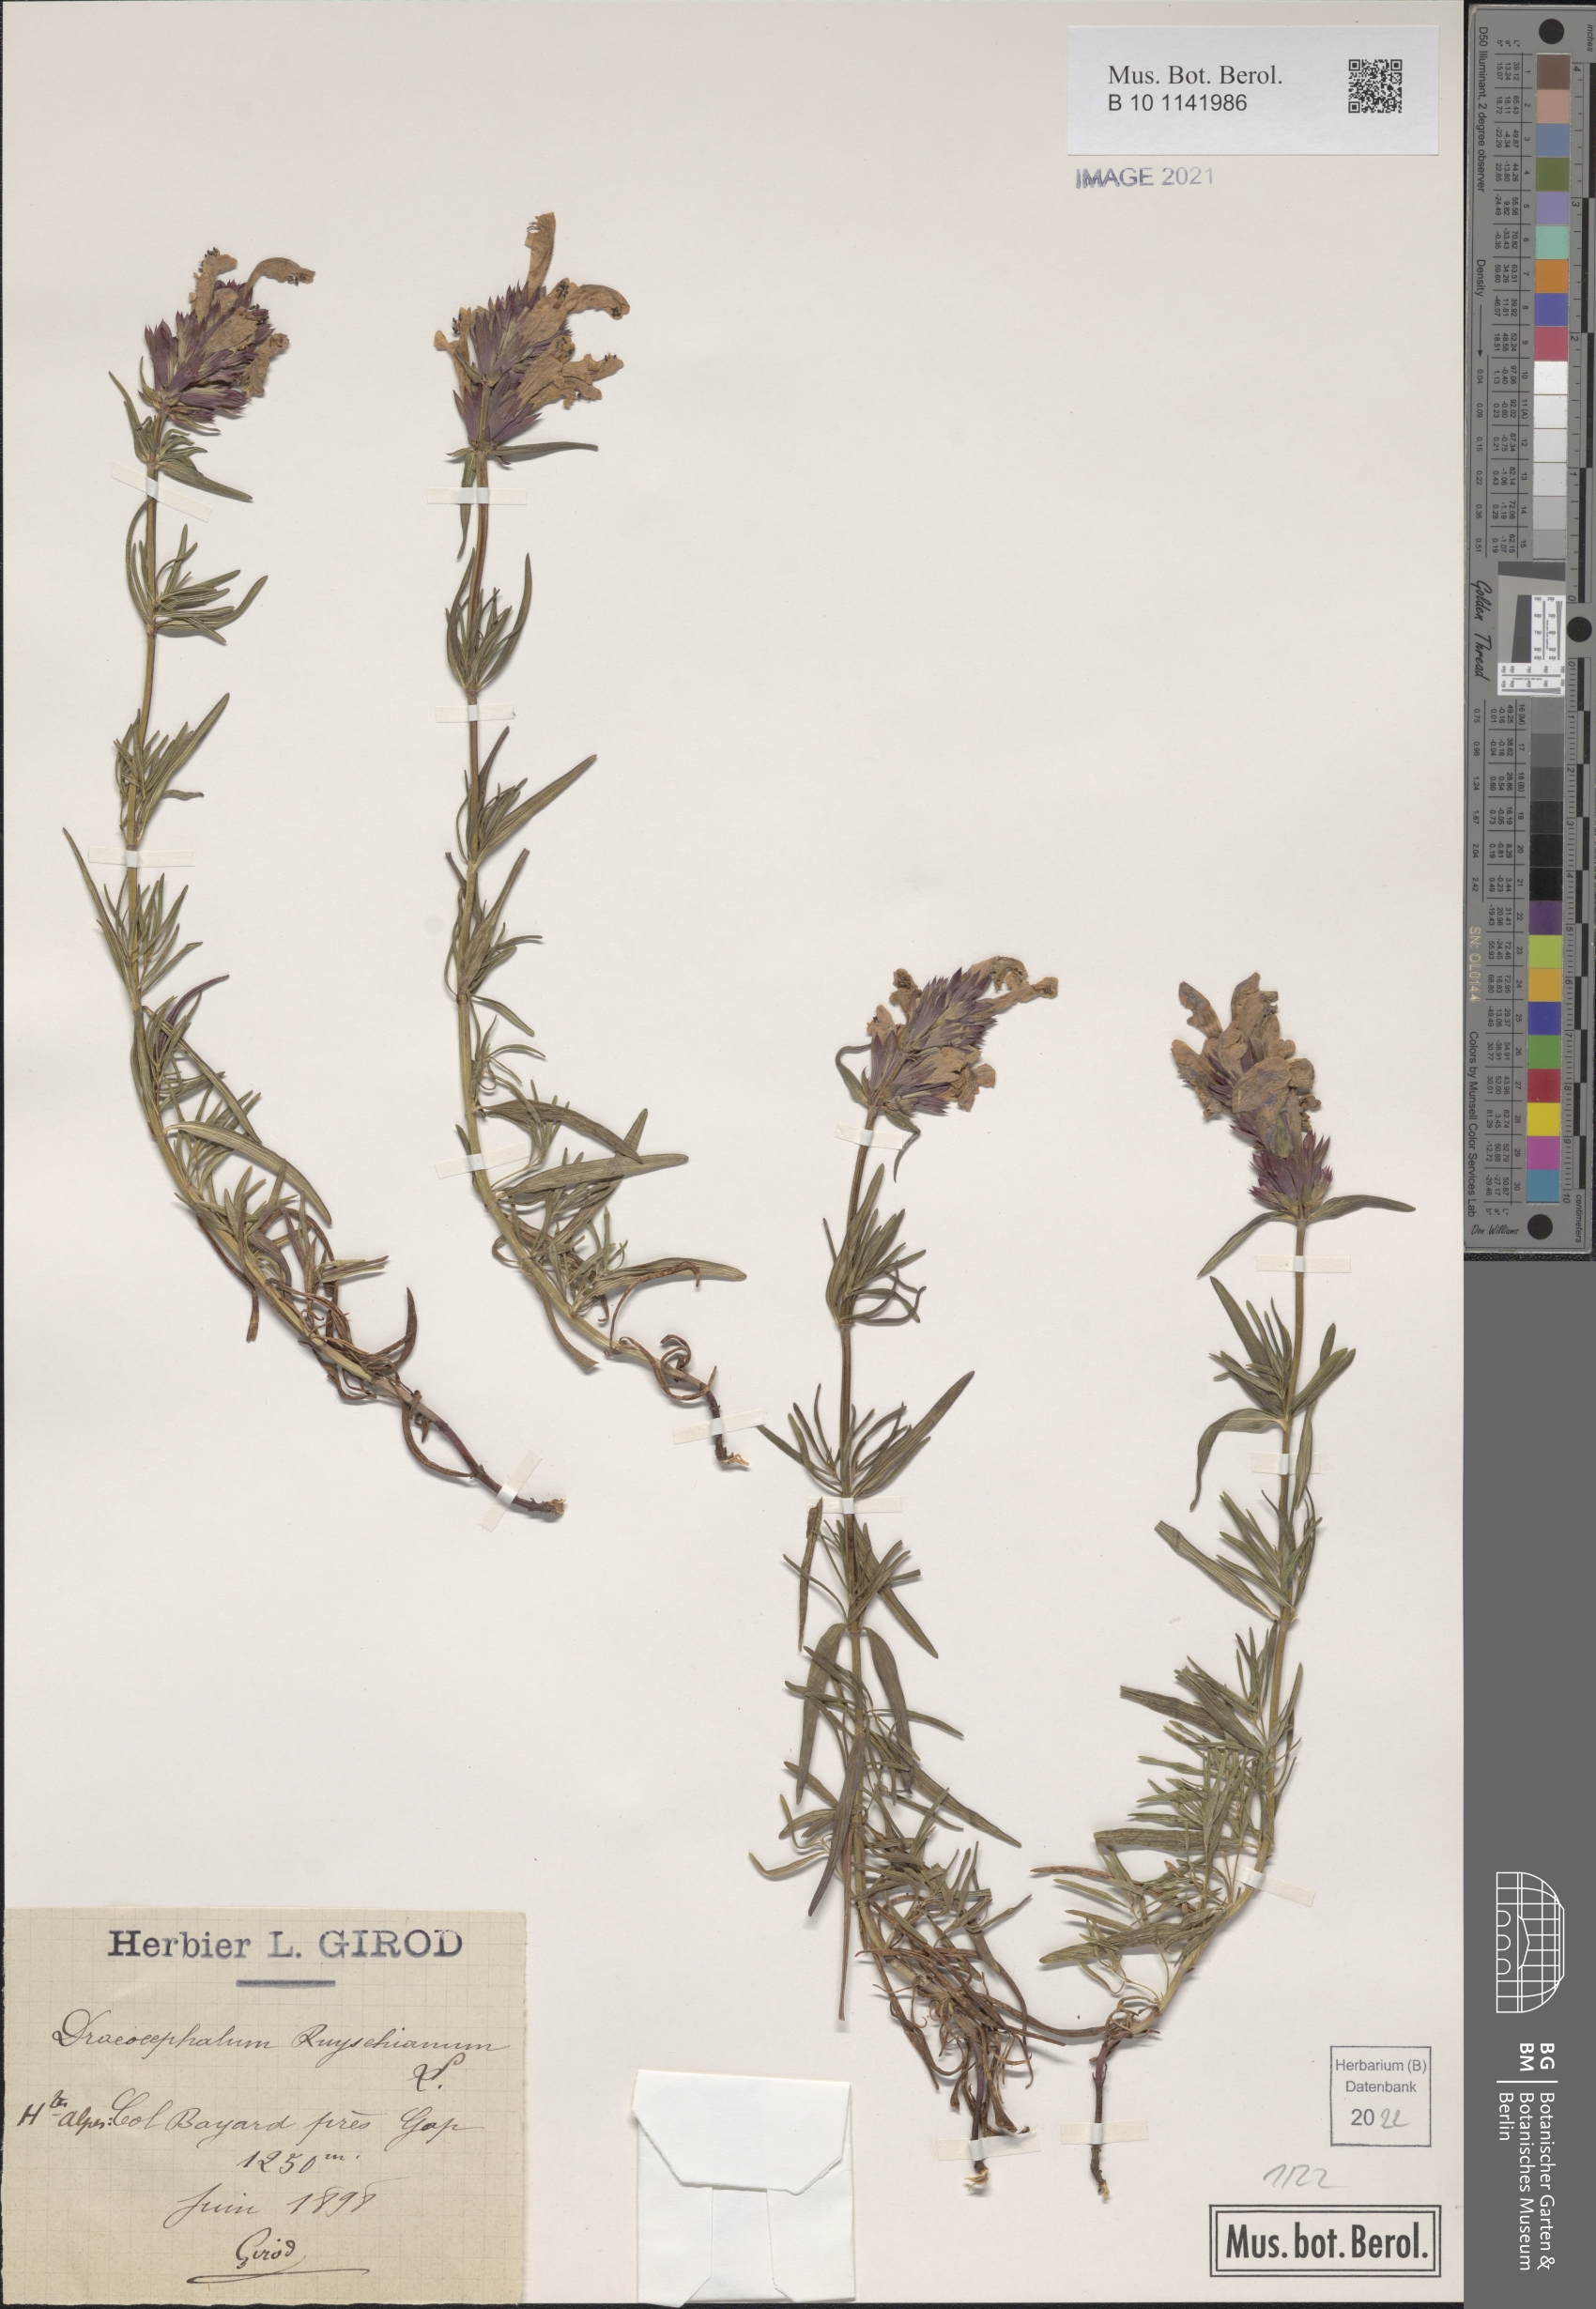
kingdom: Plantae
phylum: Tracheophyta
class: Magnoliopsida
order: Lamiales
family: Lamiaceae
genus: Dracocephalum
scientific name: Dracocephalum ruyschiana
